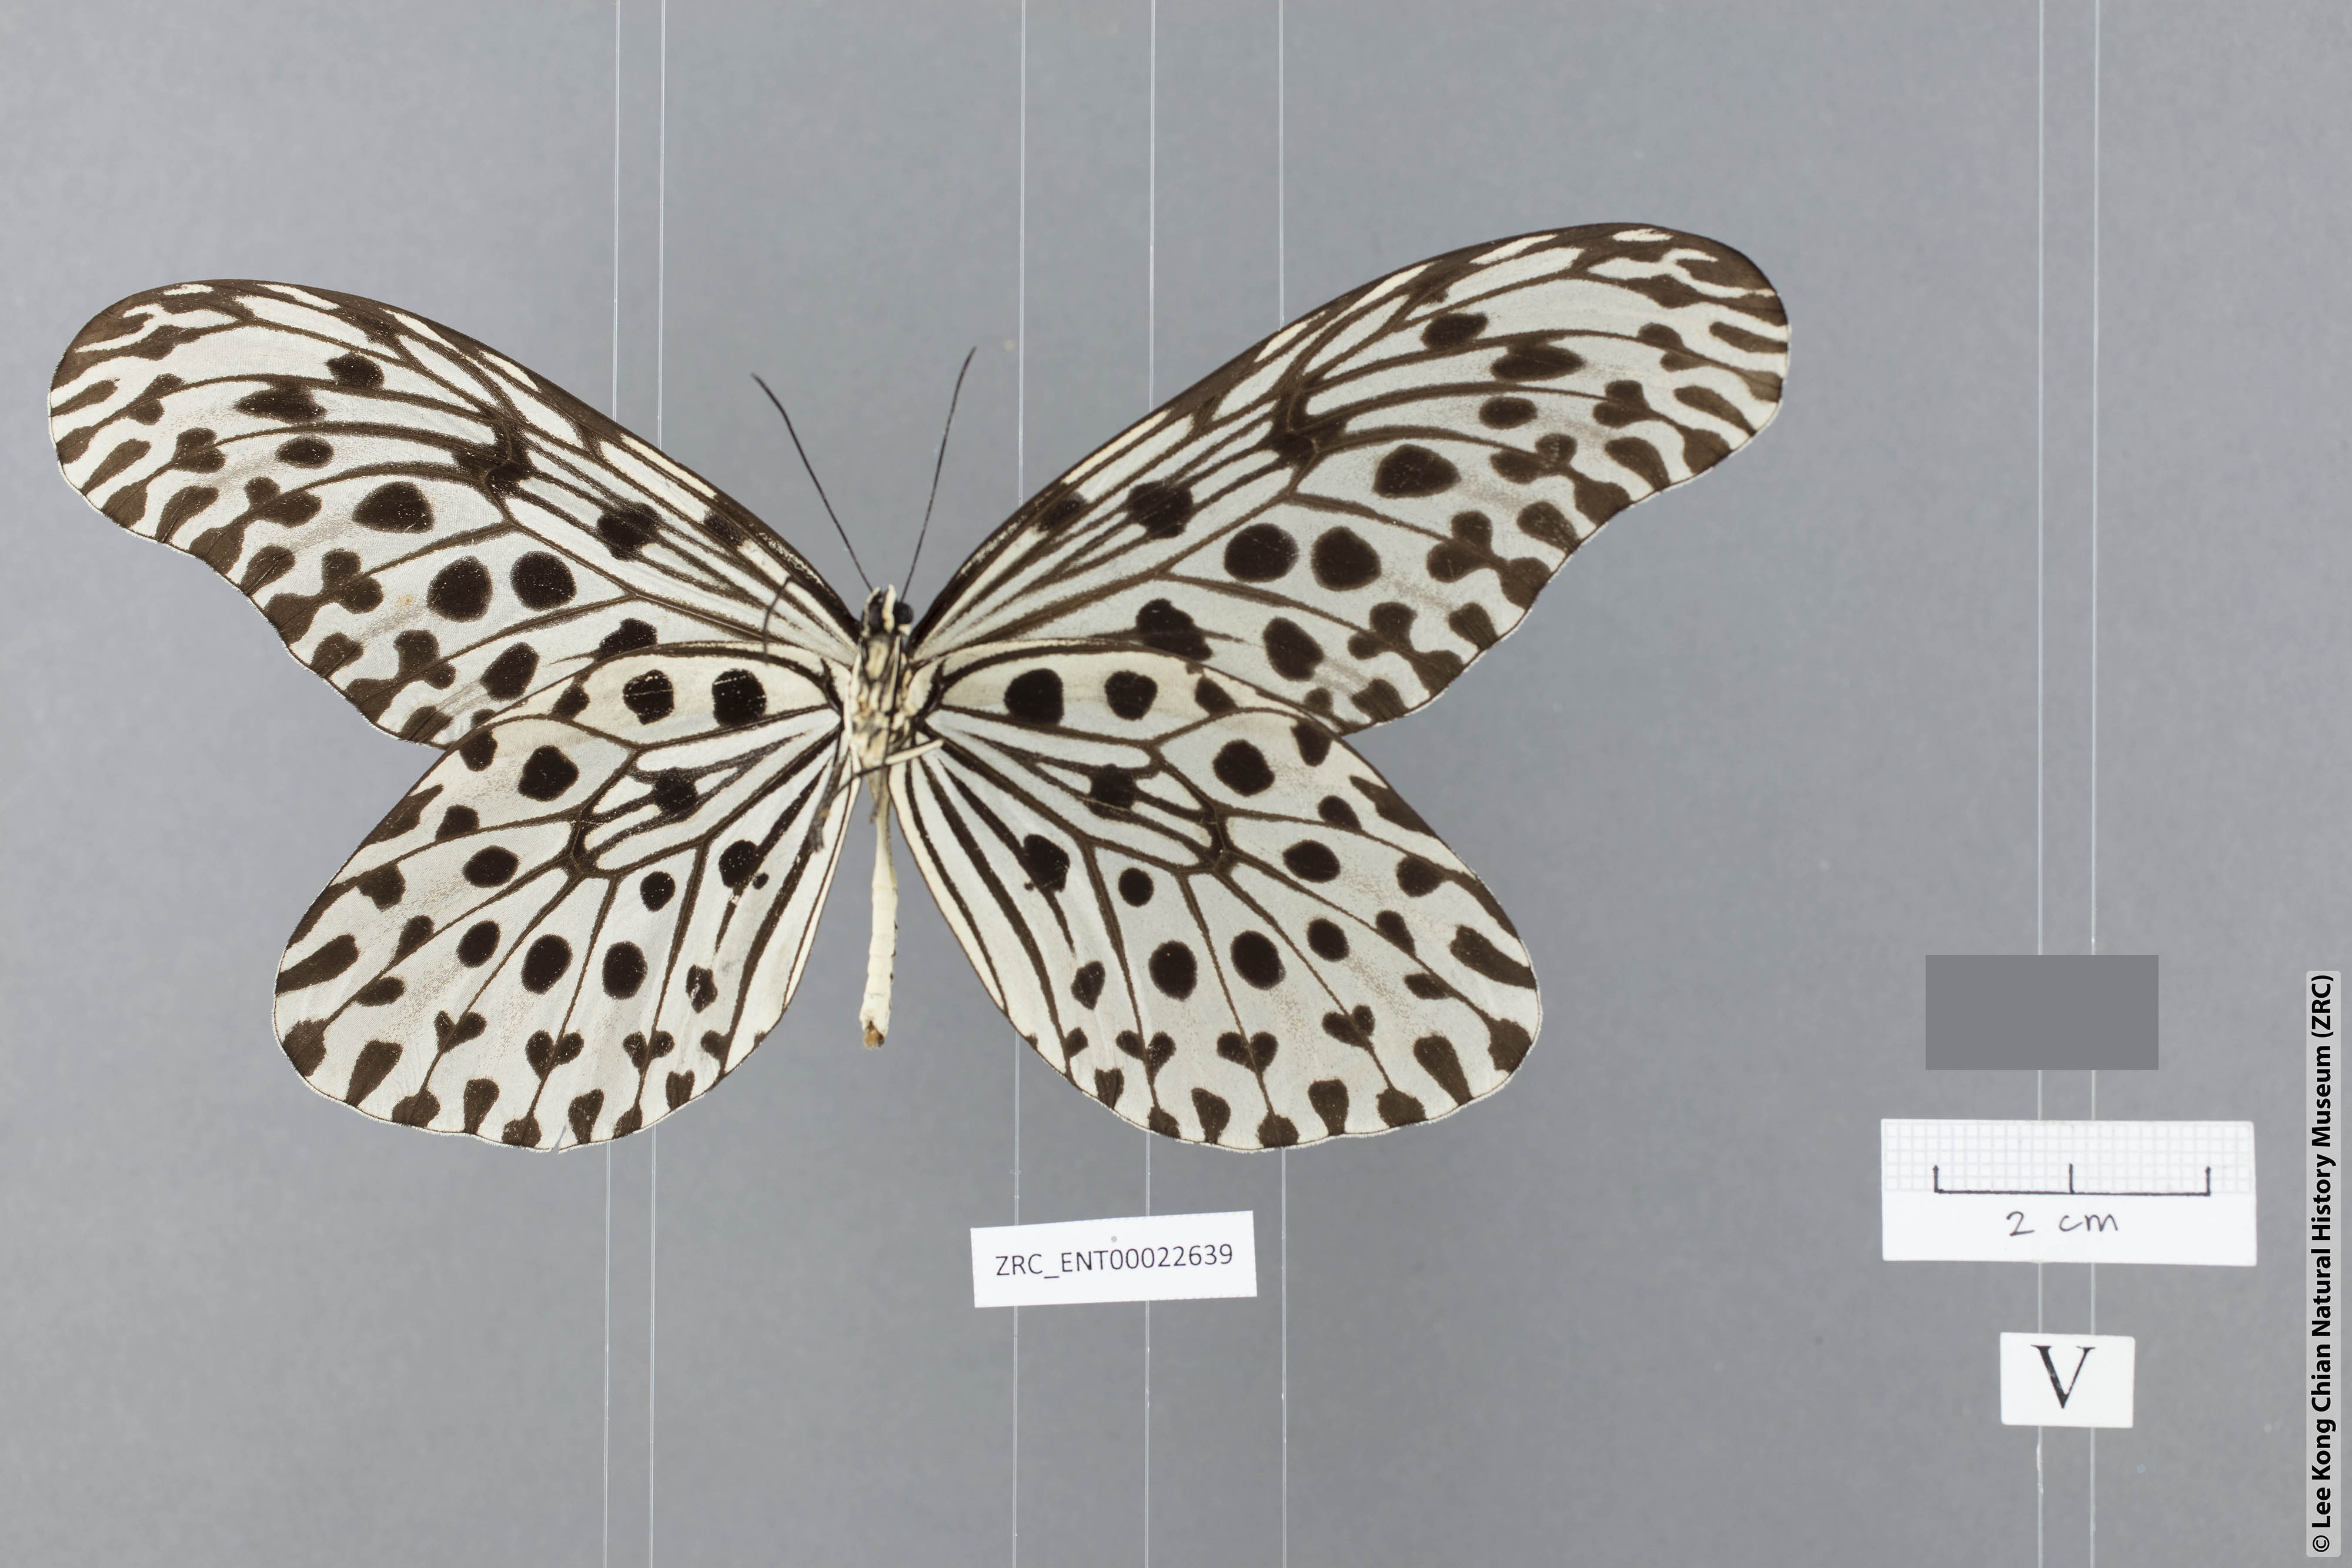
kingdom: Animalia
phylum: Arthropoda
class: Insecta
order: Lepidoptera
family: Nymphalidae
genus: Idea
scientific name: Idea stolli
